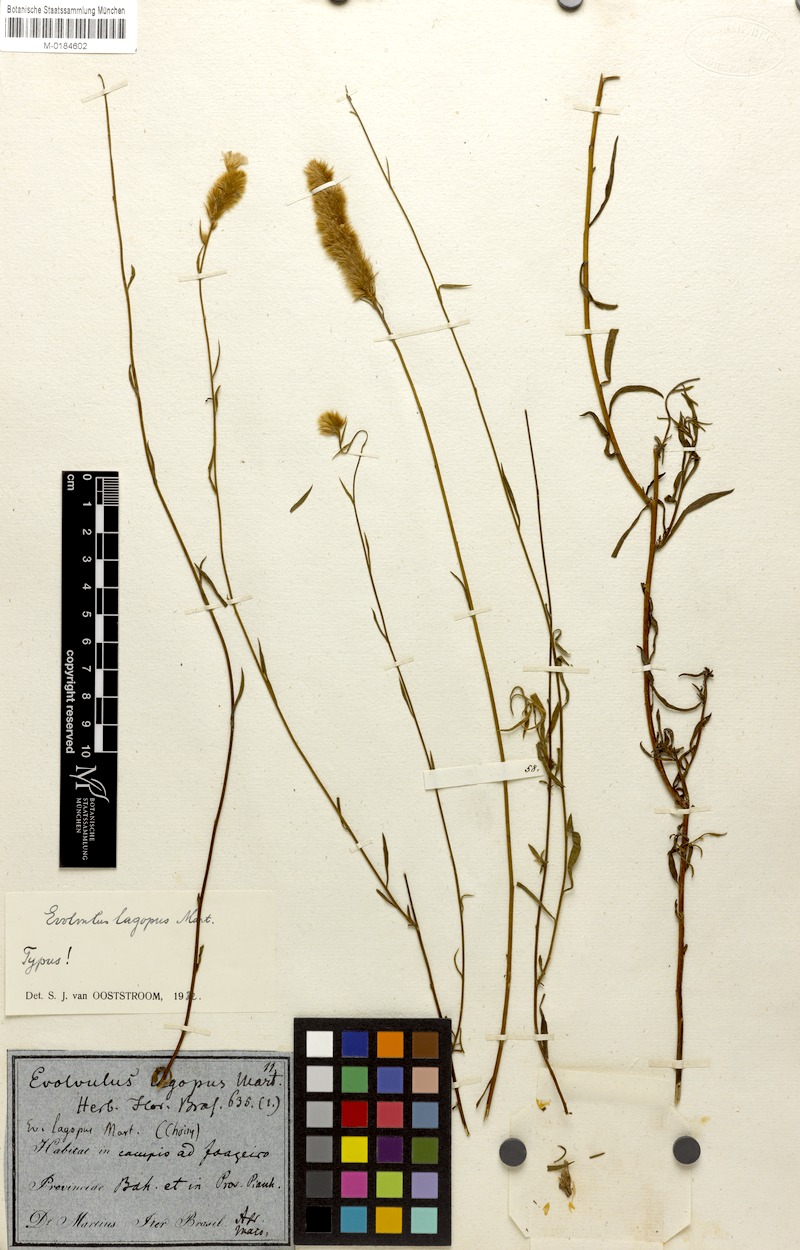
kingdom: Plantae
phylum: Tracheophyta
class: Magnoliopsida
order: Solanales
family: Convolvulaceae
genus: Evolvulus
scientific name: Evolvulus lagopus
